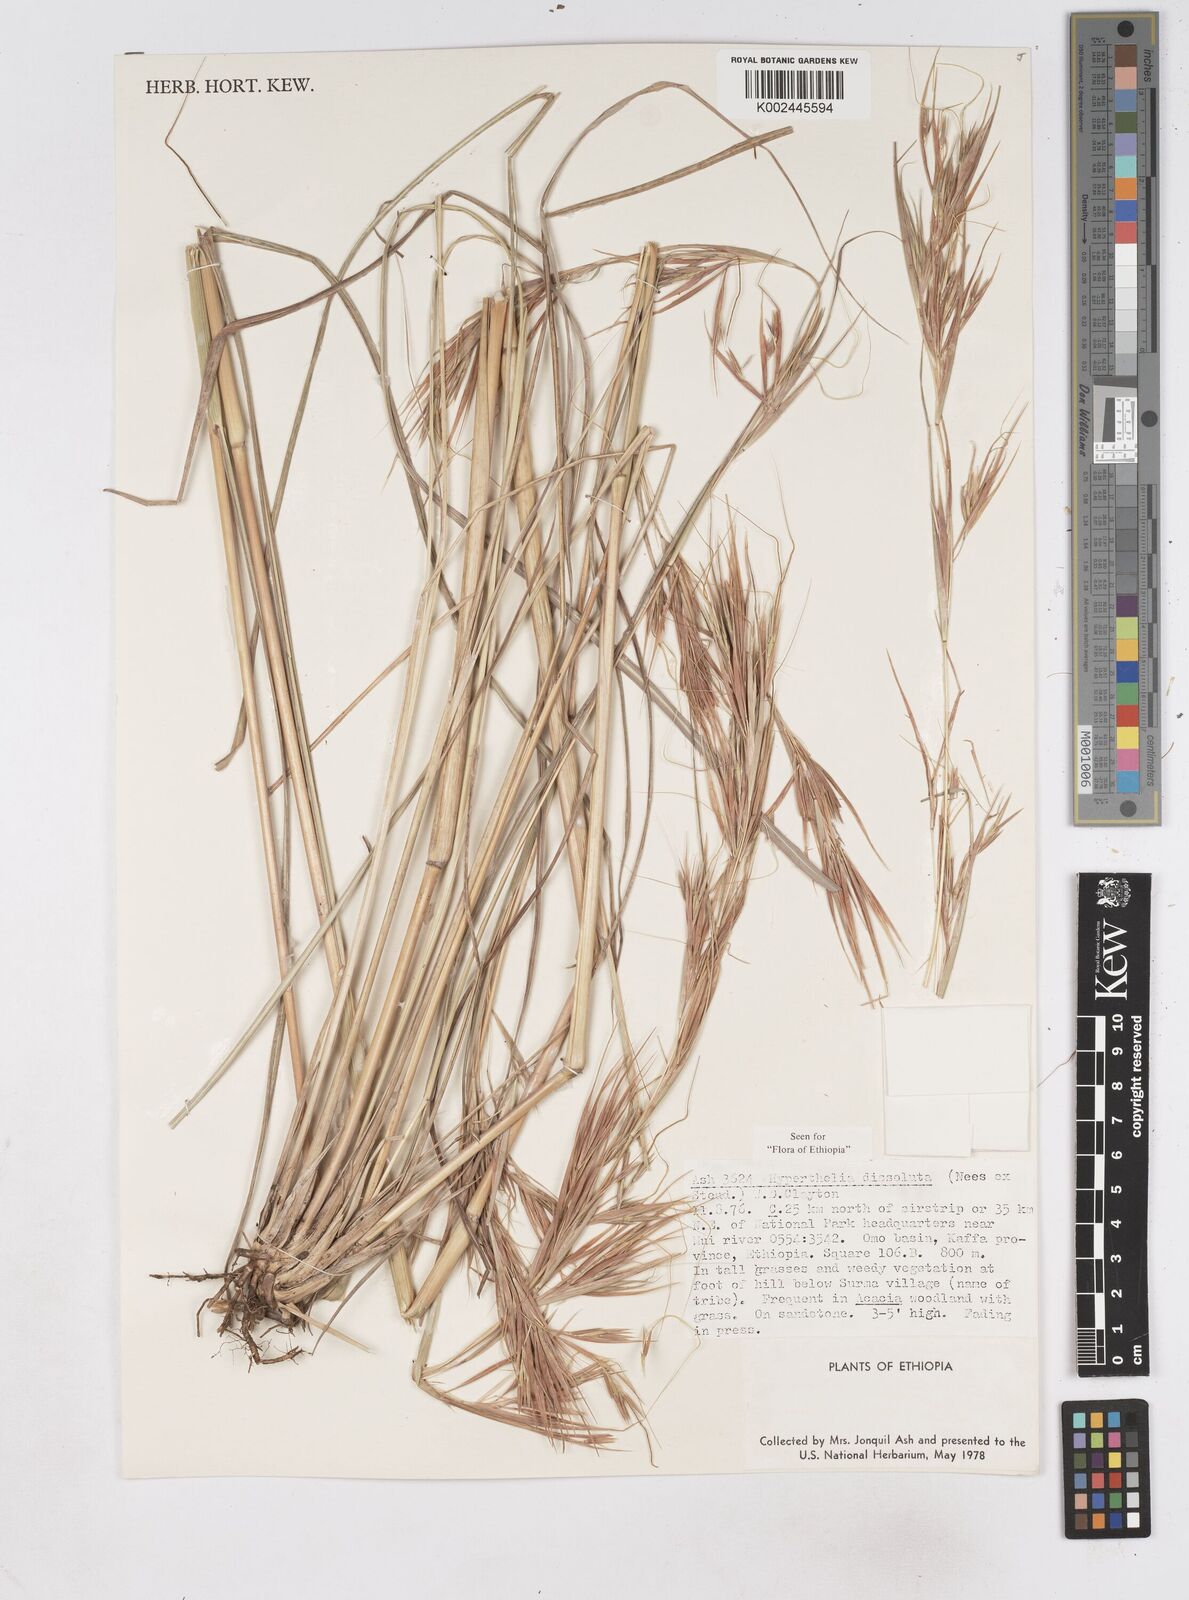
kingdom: Plantae
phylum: Tracheophyta
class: Liliopsida
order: Poales
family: Poaceae
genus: Hyperthelia
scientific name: Hyperthelia dissoluta
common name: Yellow thatching grass
